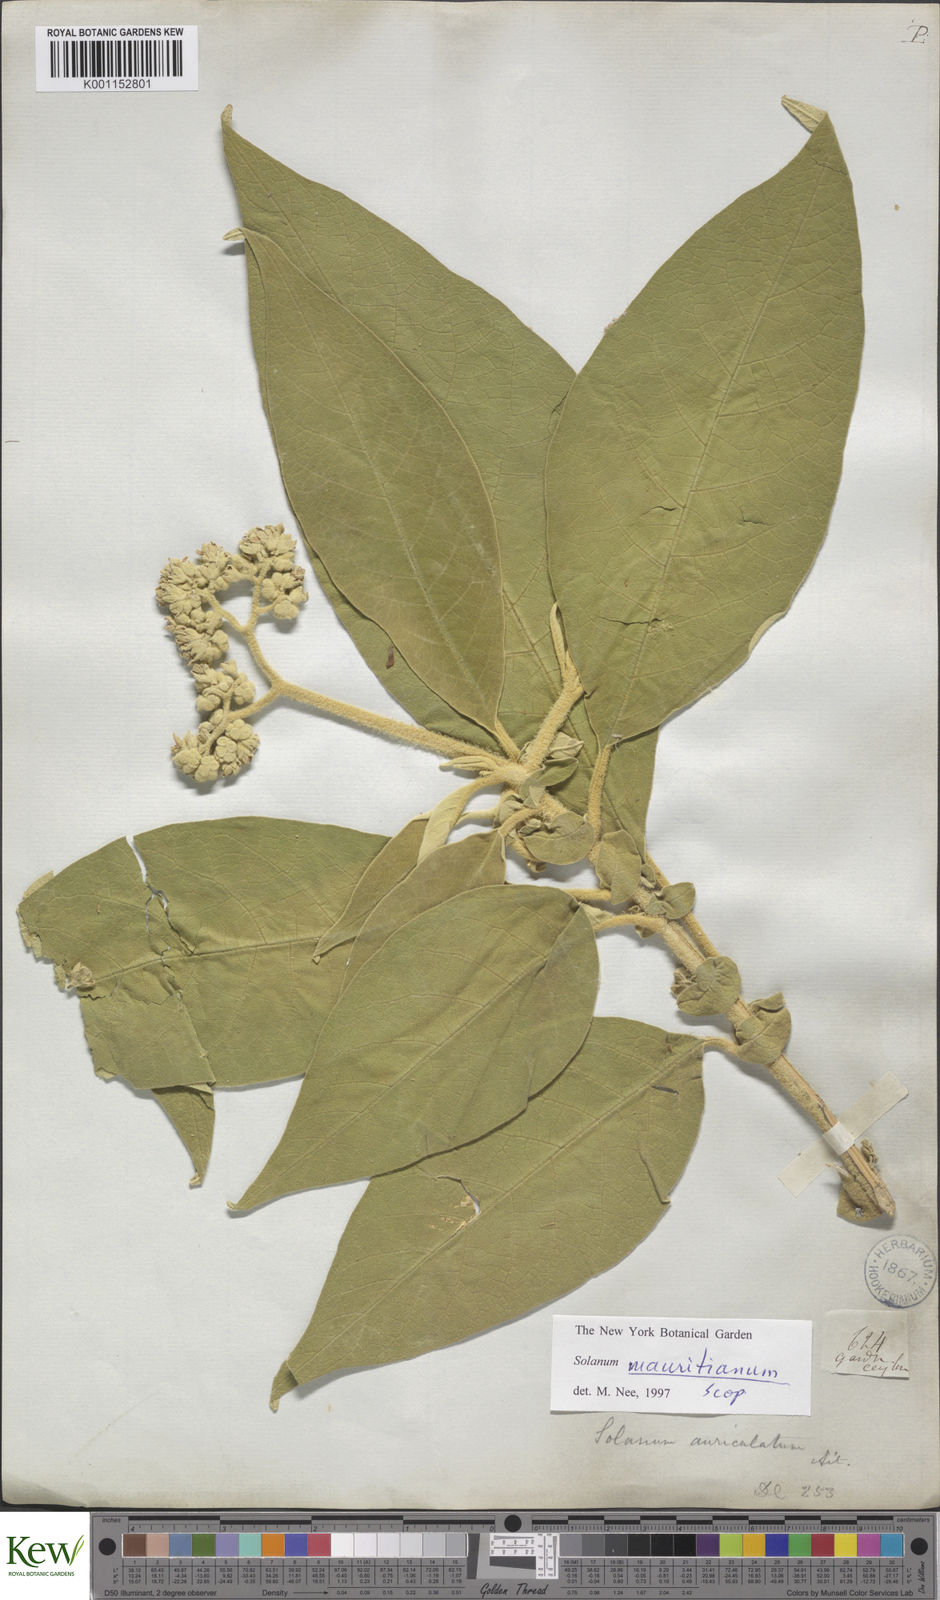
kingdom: Plantae
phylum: Tracheophyta
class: Magnoliopsida
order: Solanales
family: Solanaceae
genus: Solanum
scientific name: Solanum mauritianum
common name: Earleaf nightshade
